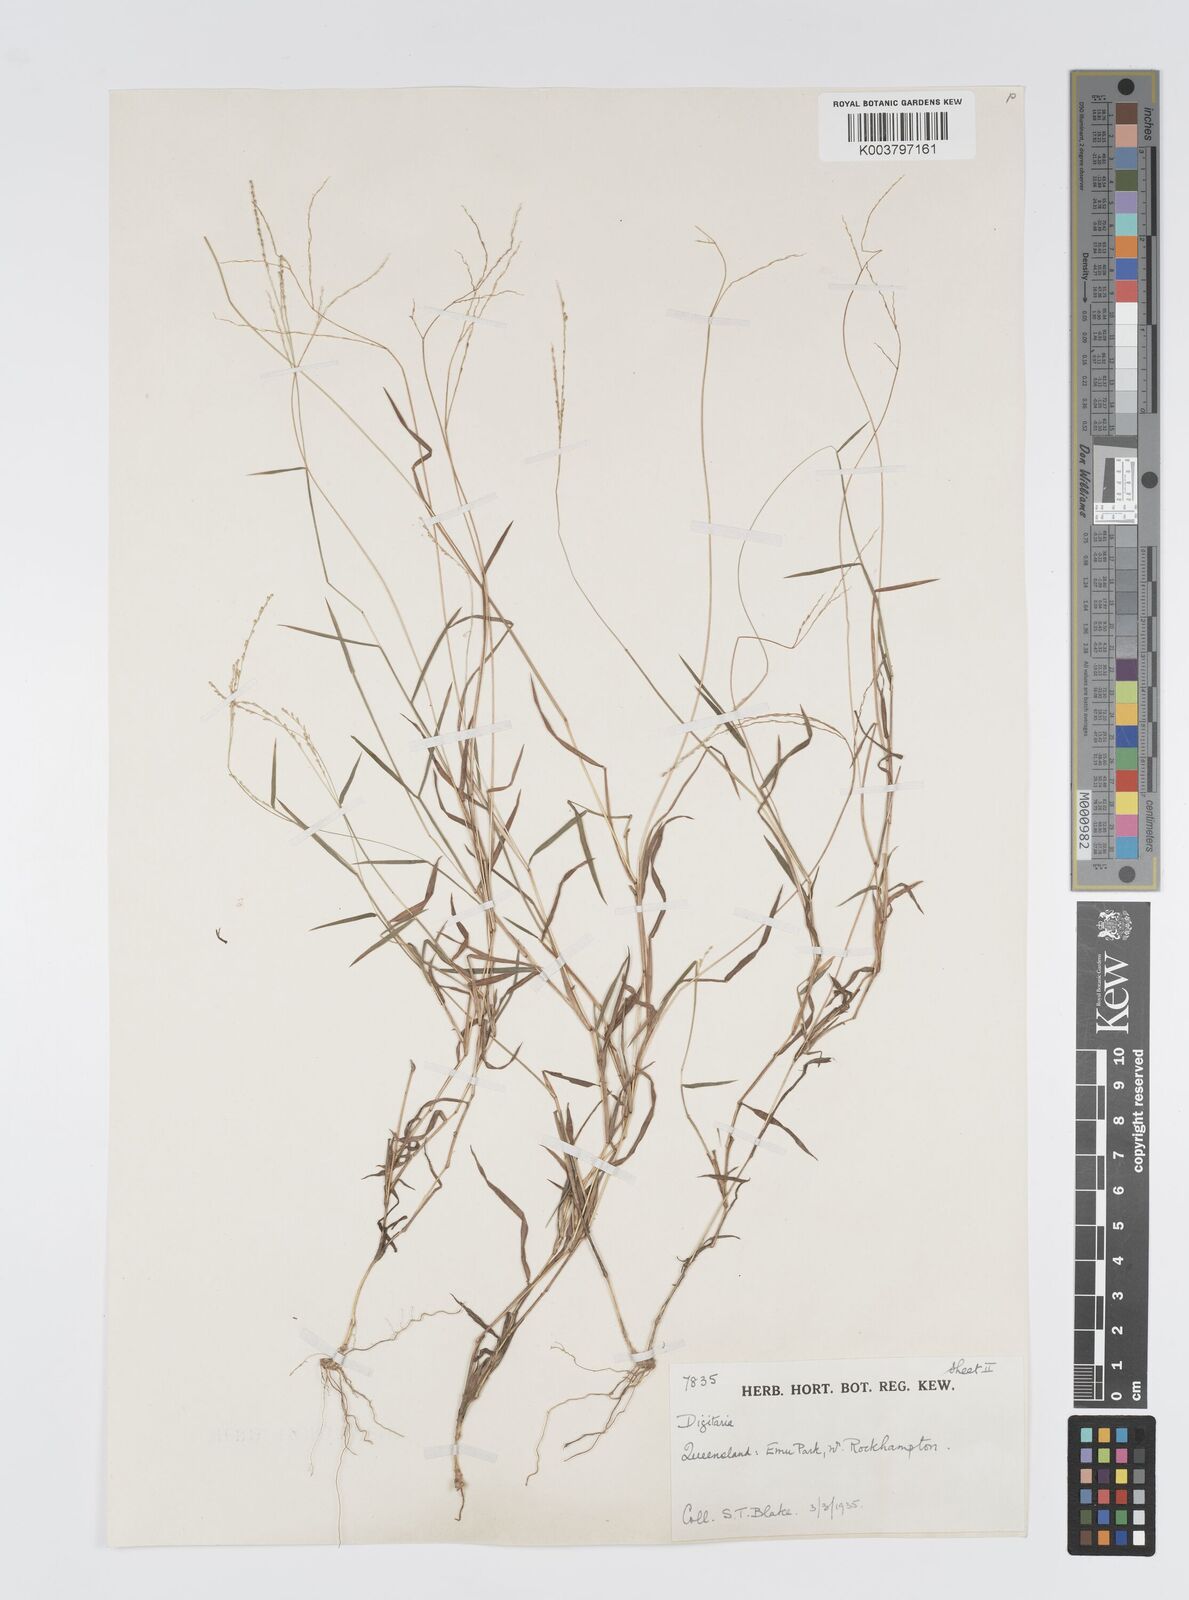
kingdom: Plantae
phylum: Tracheophyta
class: Liliopsida
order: Poales
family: Poaceae
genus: Digitaria
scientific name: Digitaria spec
